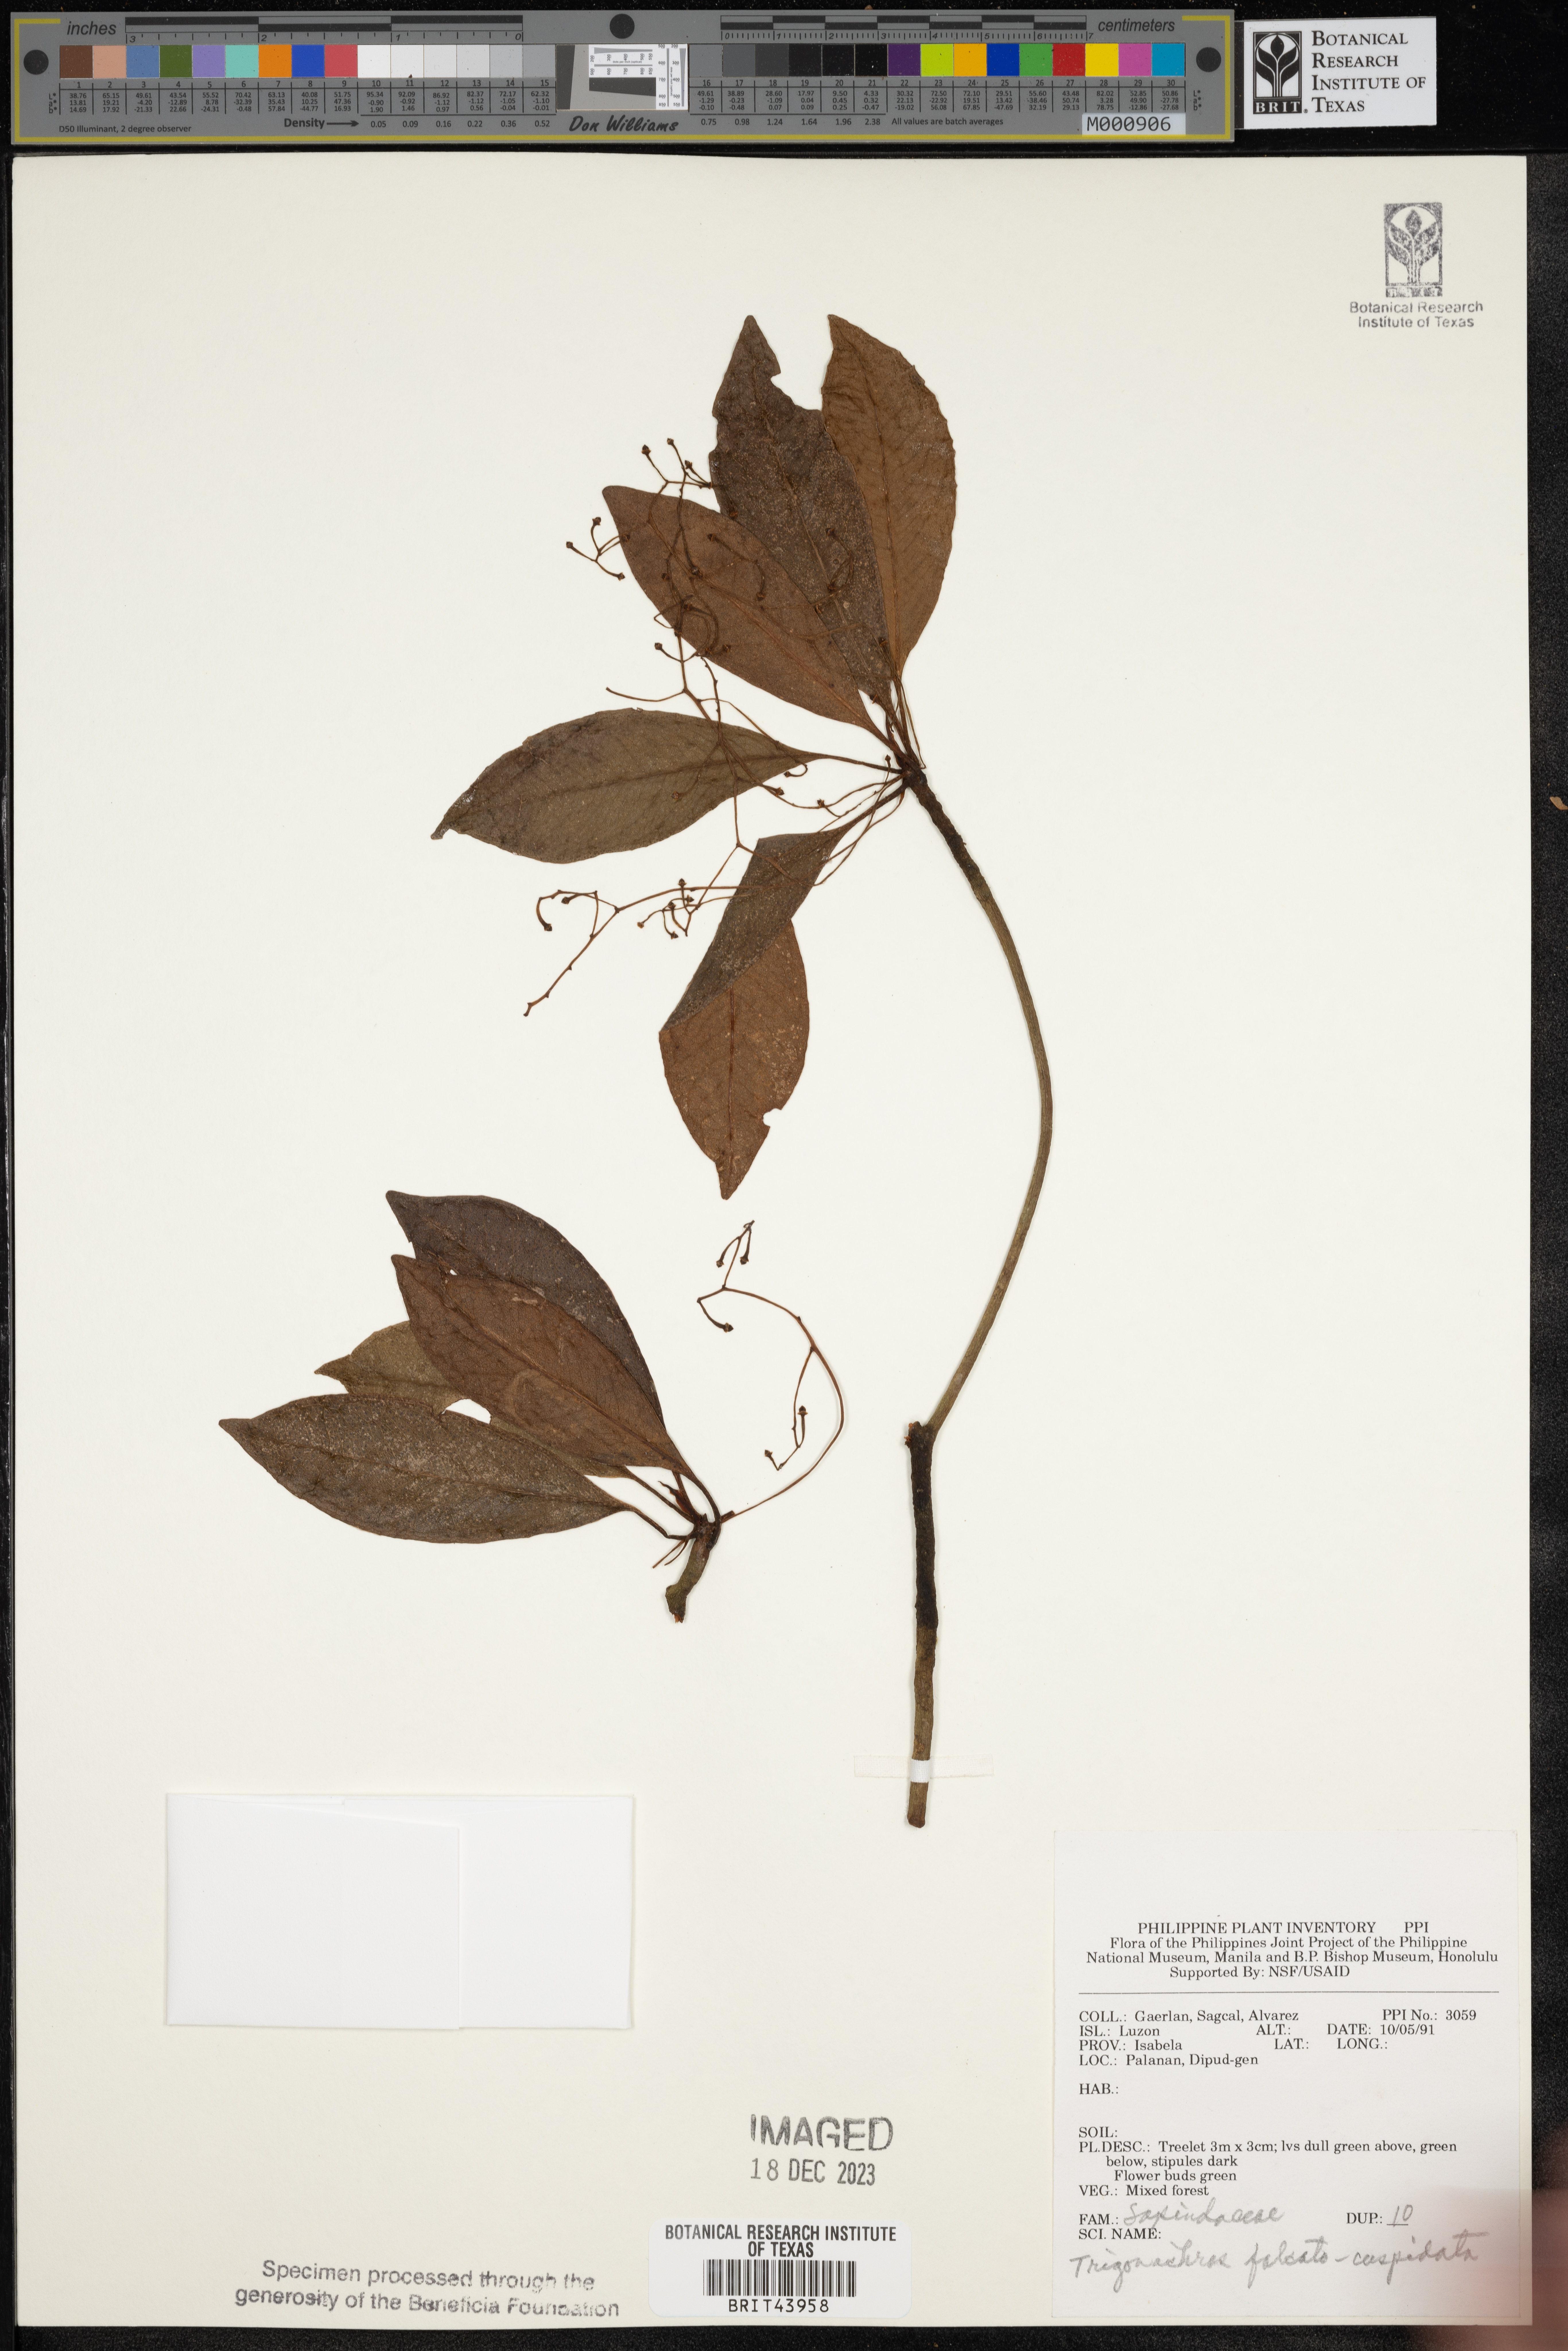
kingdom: Plantae
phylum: Tracheophyta
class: Magnoliopsida
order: Sapindales
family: Sapindaceae
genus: Trigonachras
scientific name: Trigonachras cuspidata
